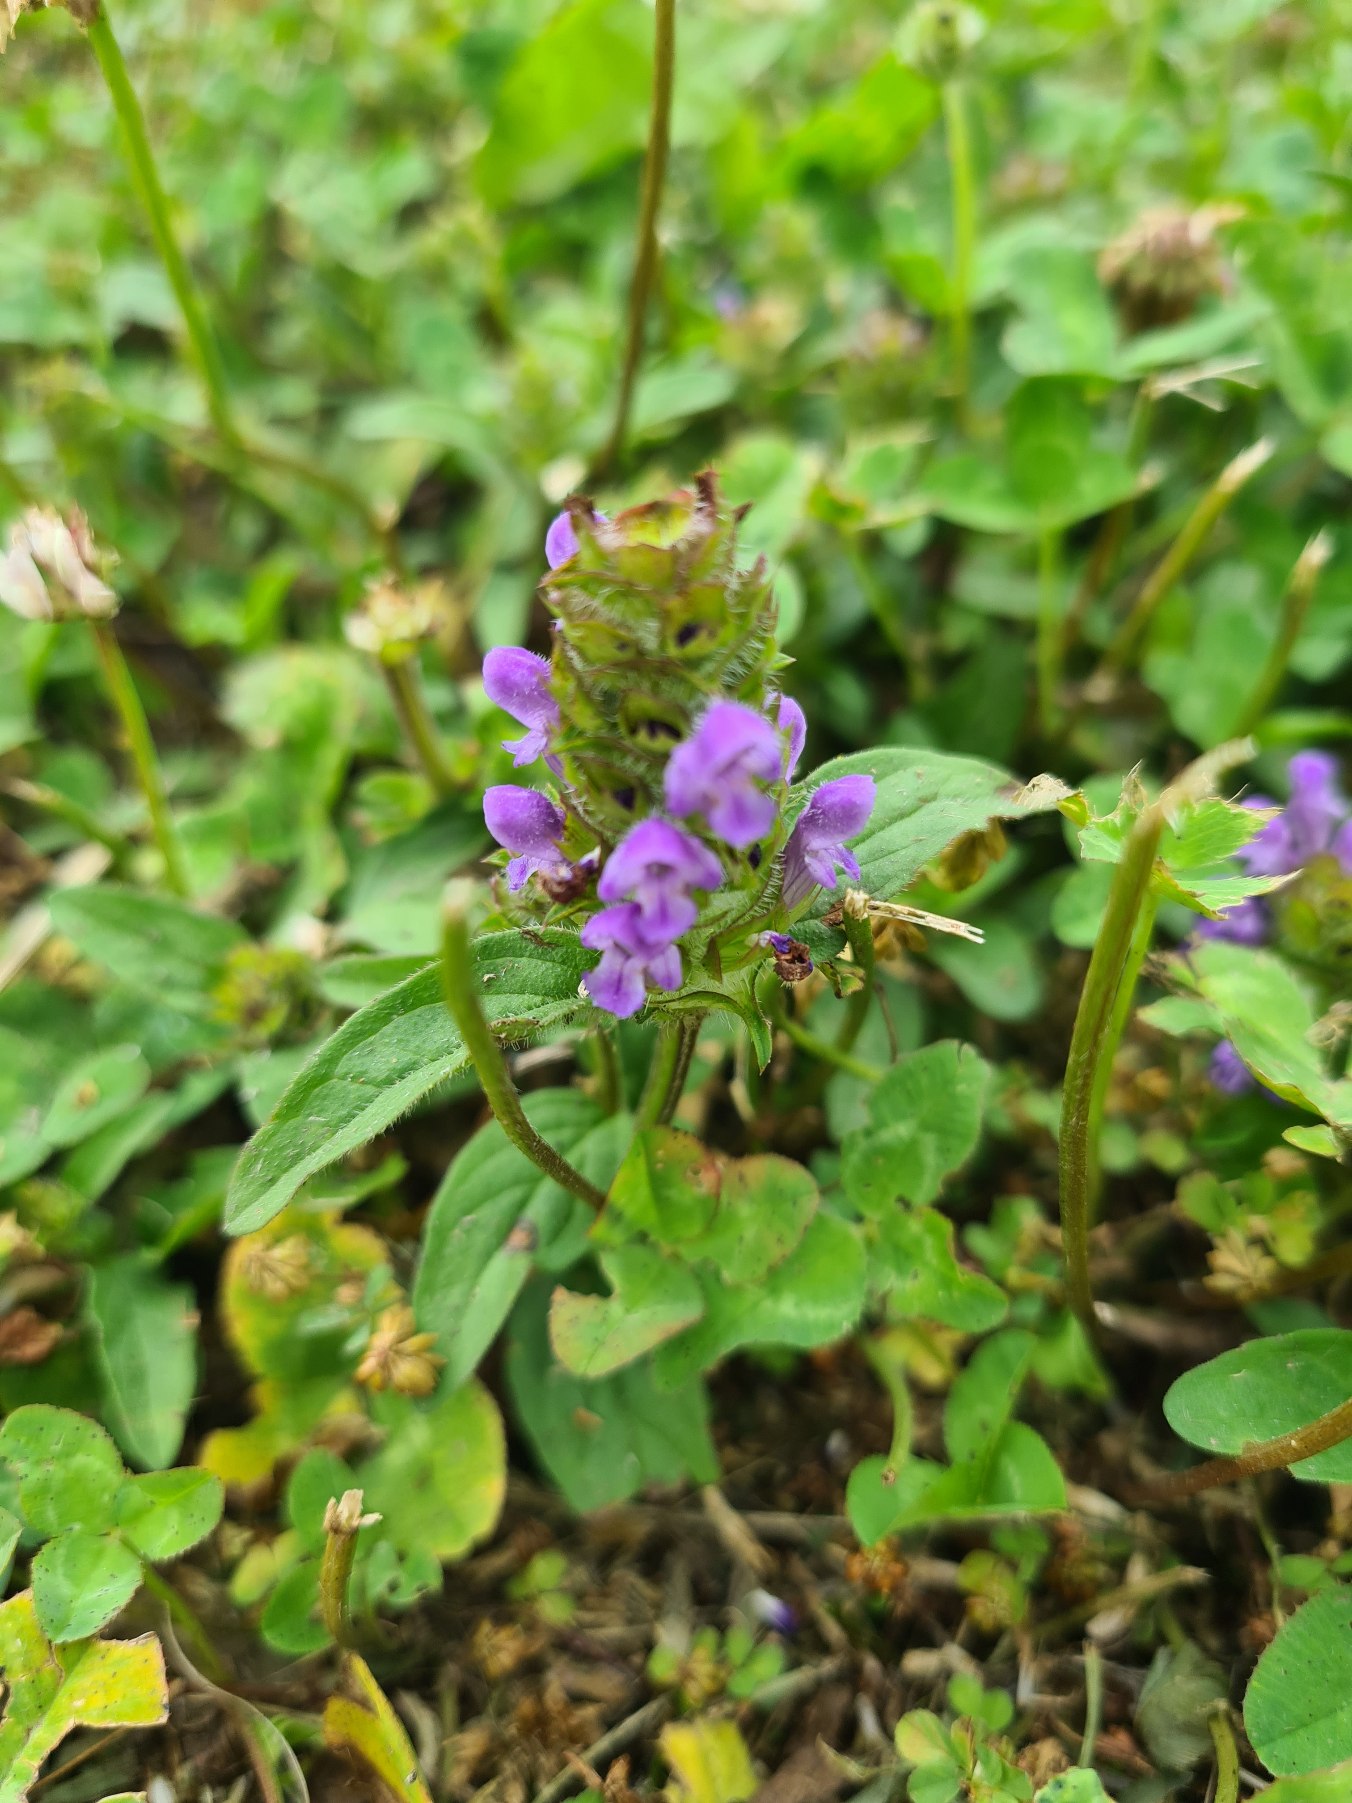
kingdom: Plantae
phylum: Tracheophyta
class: Magnoliopsida
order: Lamiales
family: Lamiaceae
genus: Prunella
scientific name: Prunella vulgaris
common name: Almindelig brunelle
